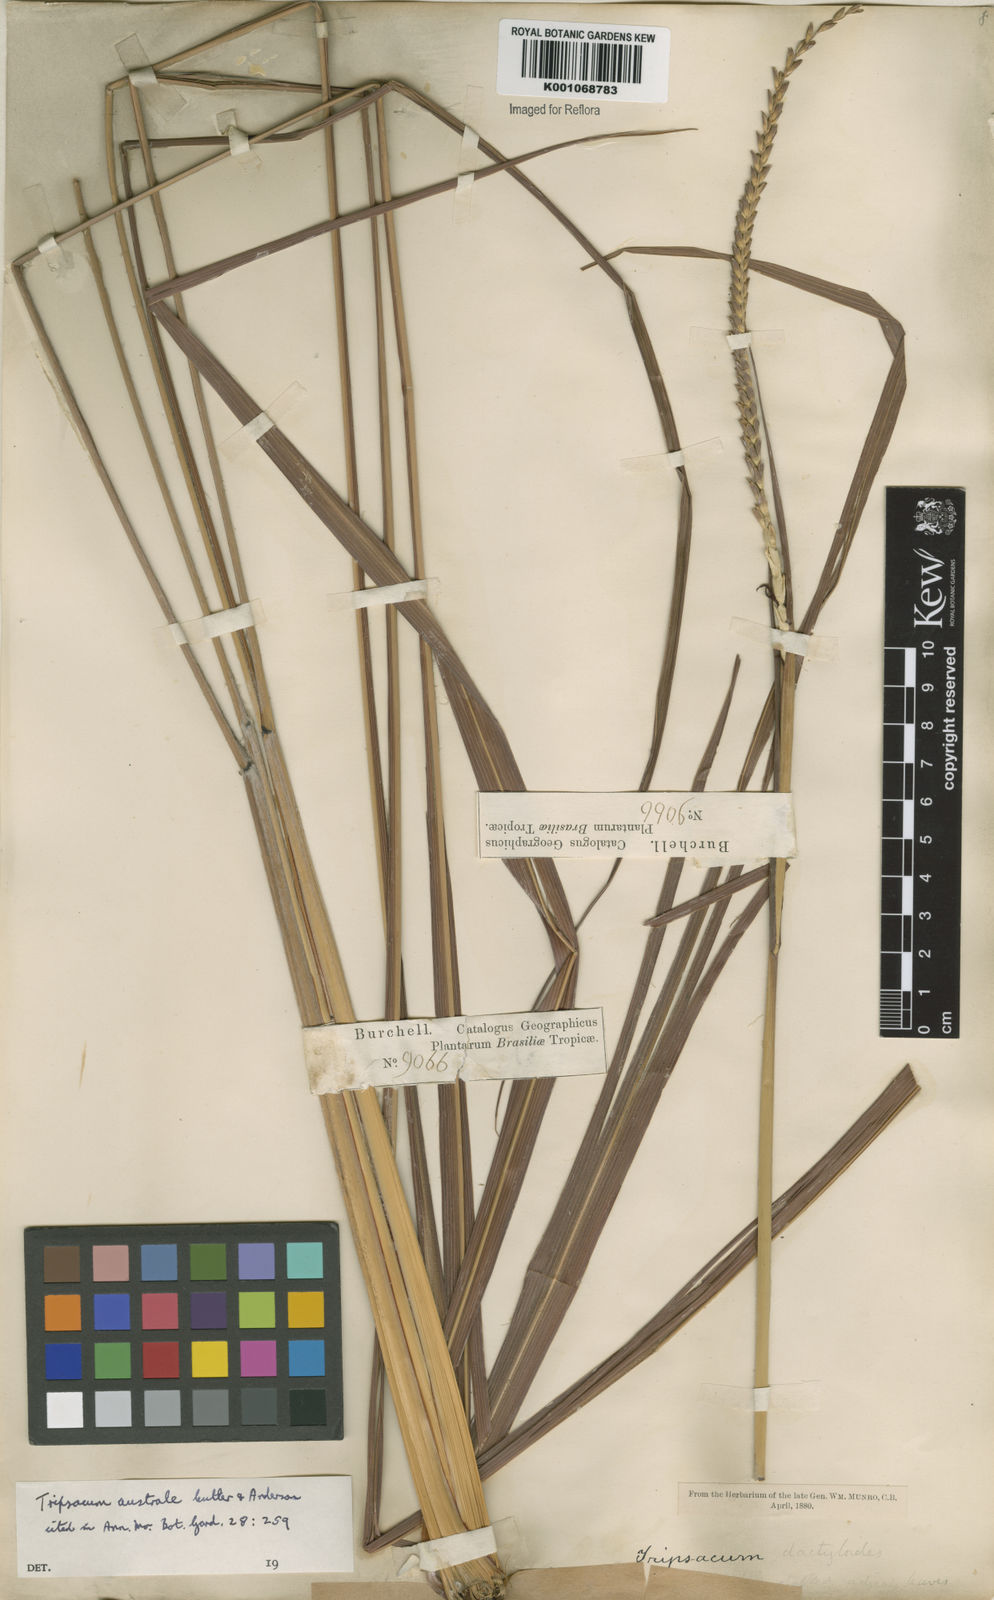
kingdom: Plantae
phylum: Tracheophyta
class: Liliopsida
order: Poales
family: Poaceae
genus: Tripsacum
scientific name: Tripsacum australe
